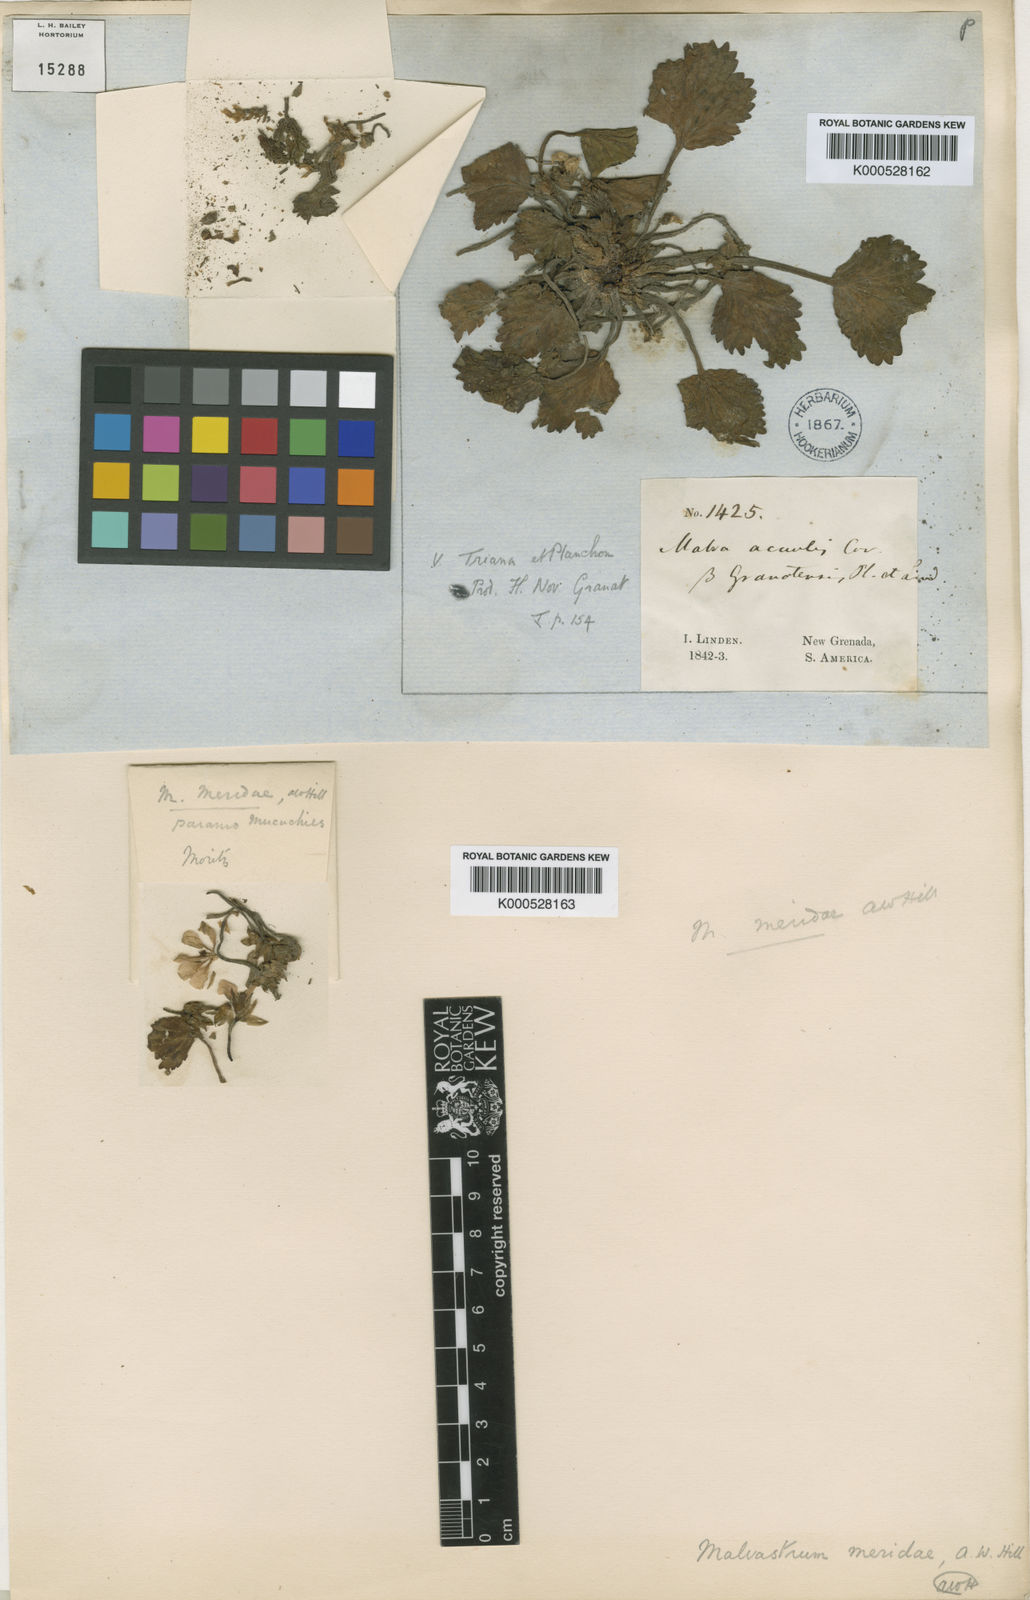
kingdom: Plantae
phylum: Tracheophyta
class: Magnoliopsida
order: Malvales
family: Malvaceae
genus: Acaulimalva
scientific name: Acaulimalva purdiaei
